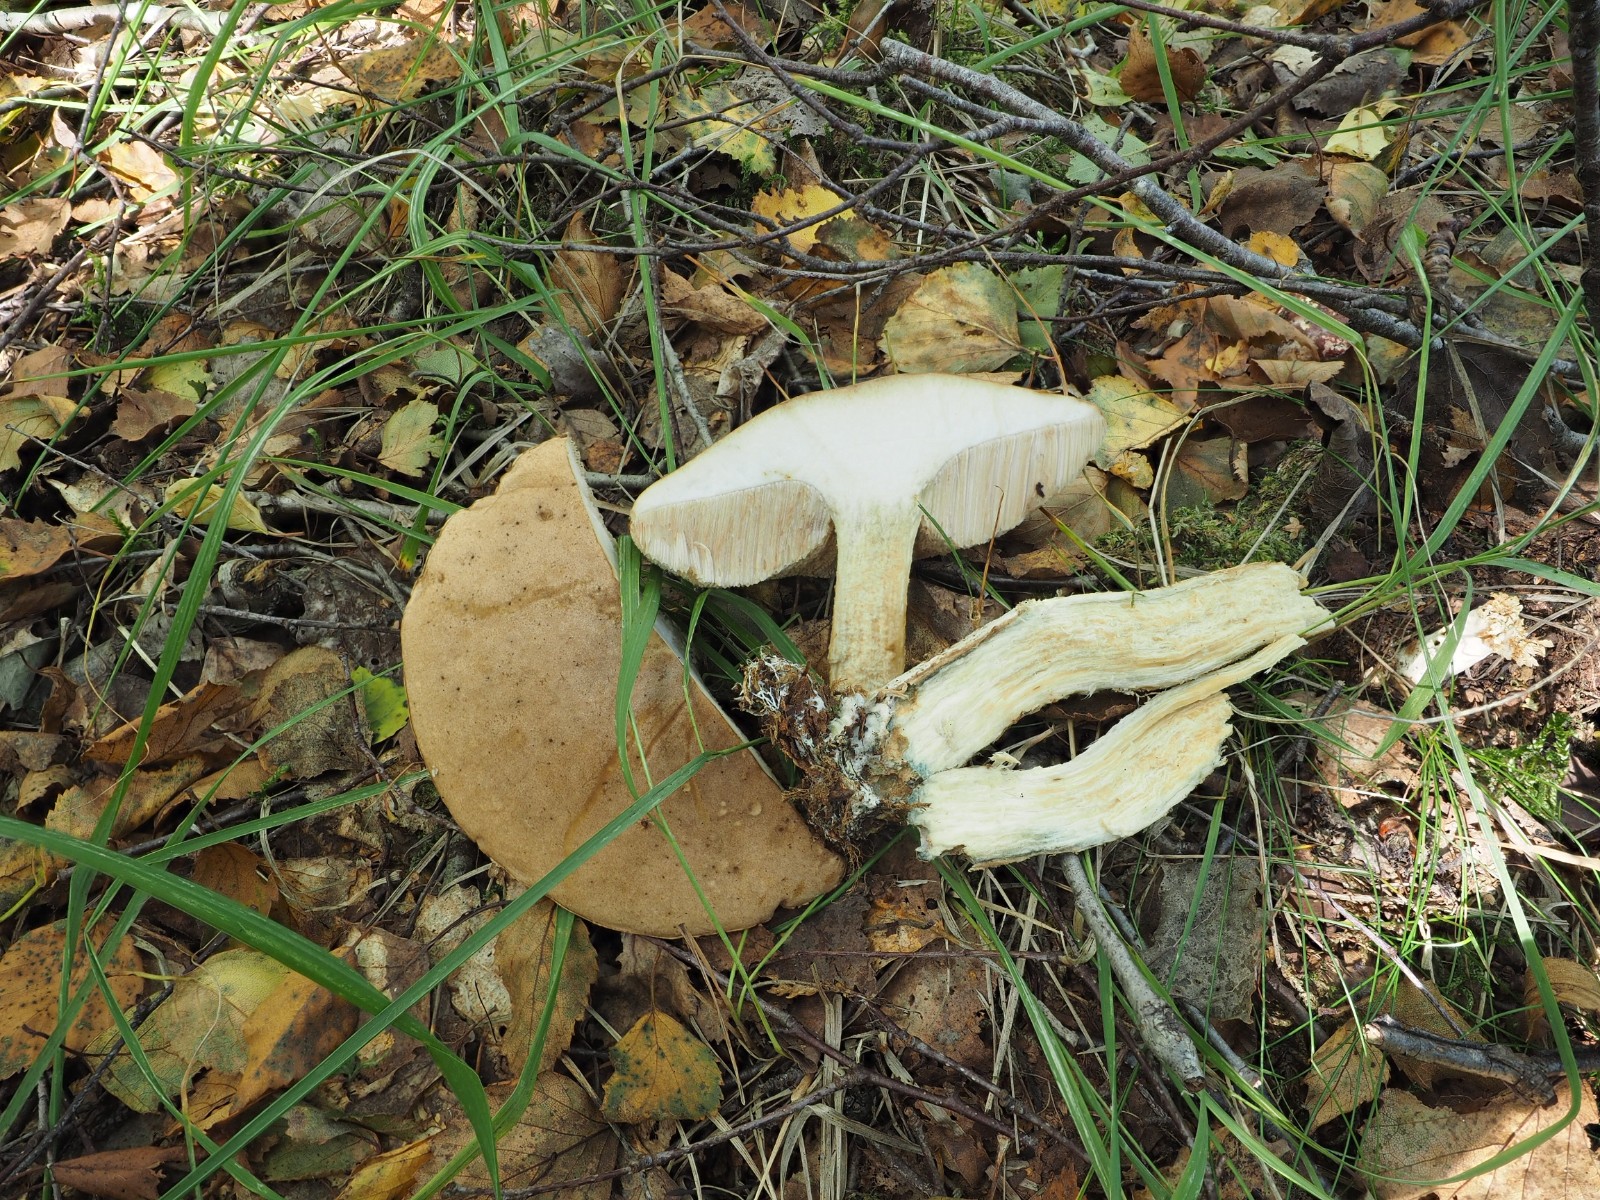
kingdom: Fungi
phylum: Basidiomycota
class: Agaricomycetes
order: Boletales
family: Boletaceae
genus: Leccinum
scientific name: Leccinum
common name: skælrørhat
